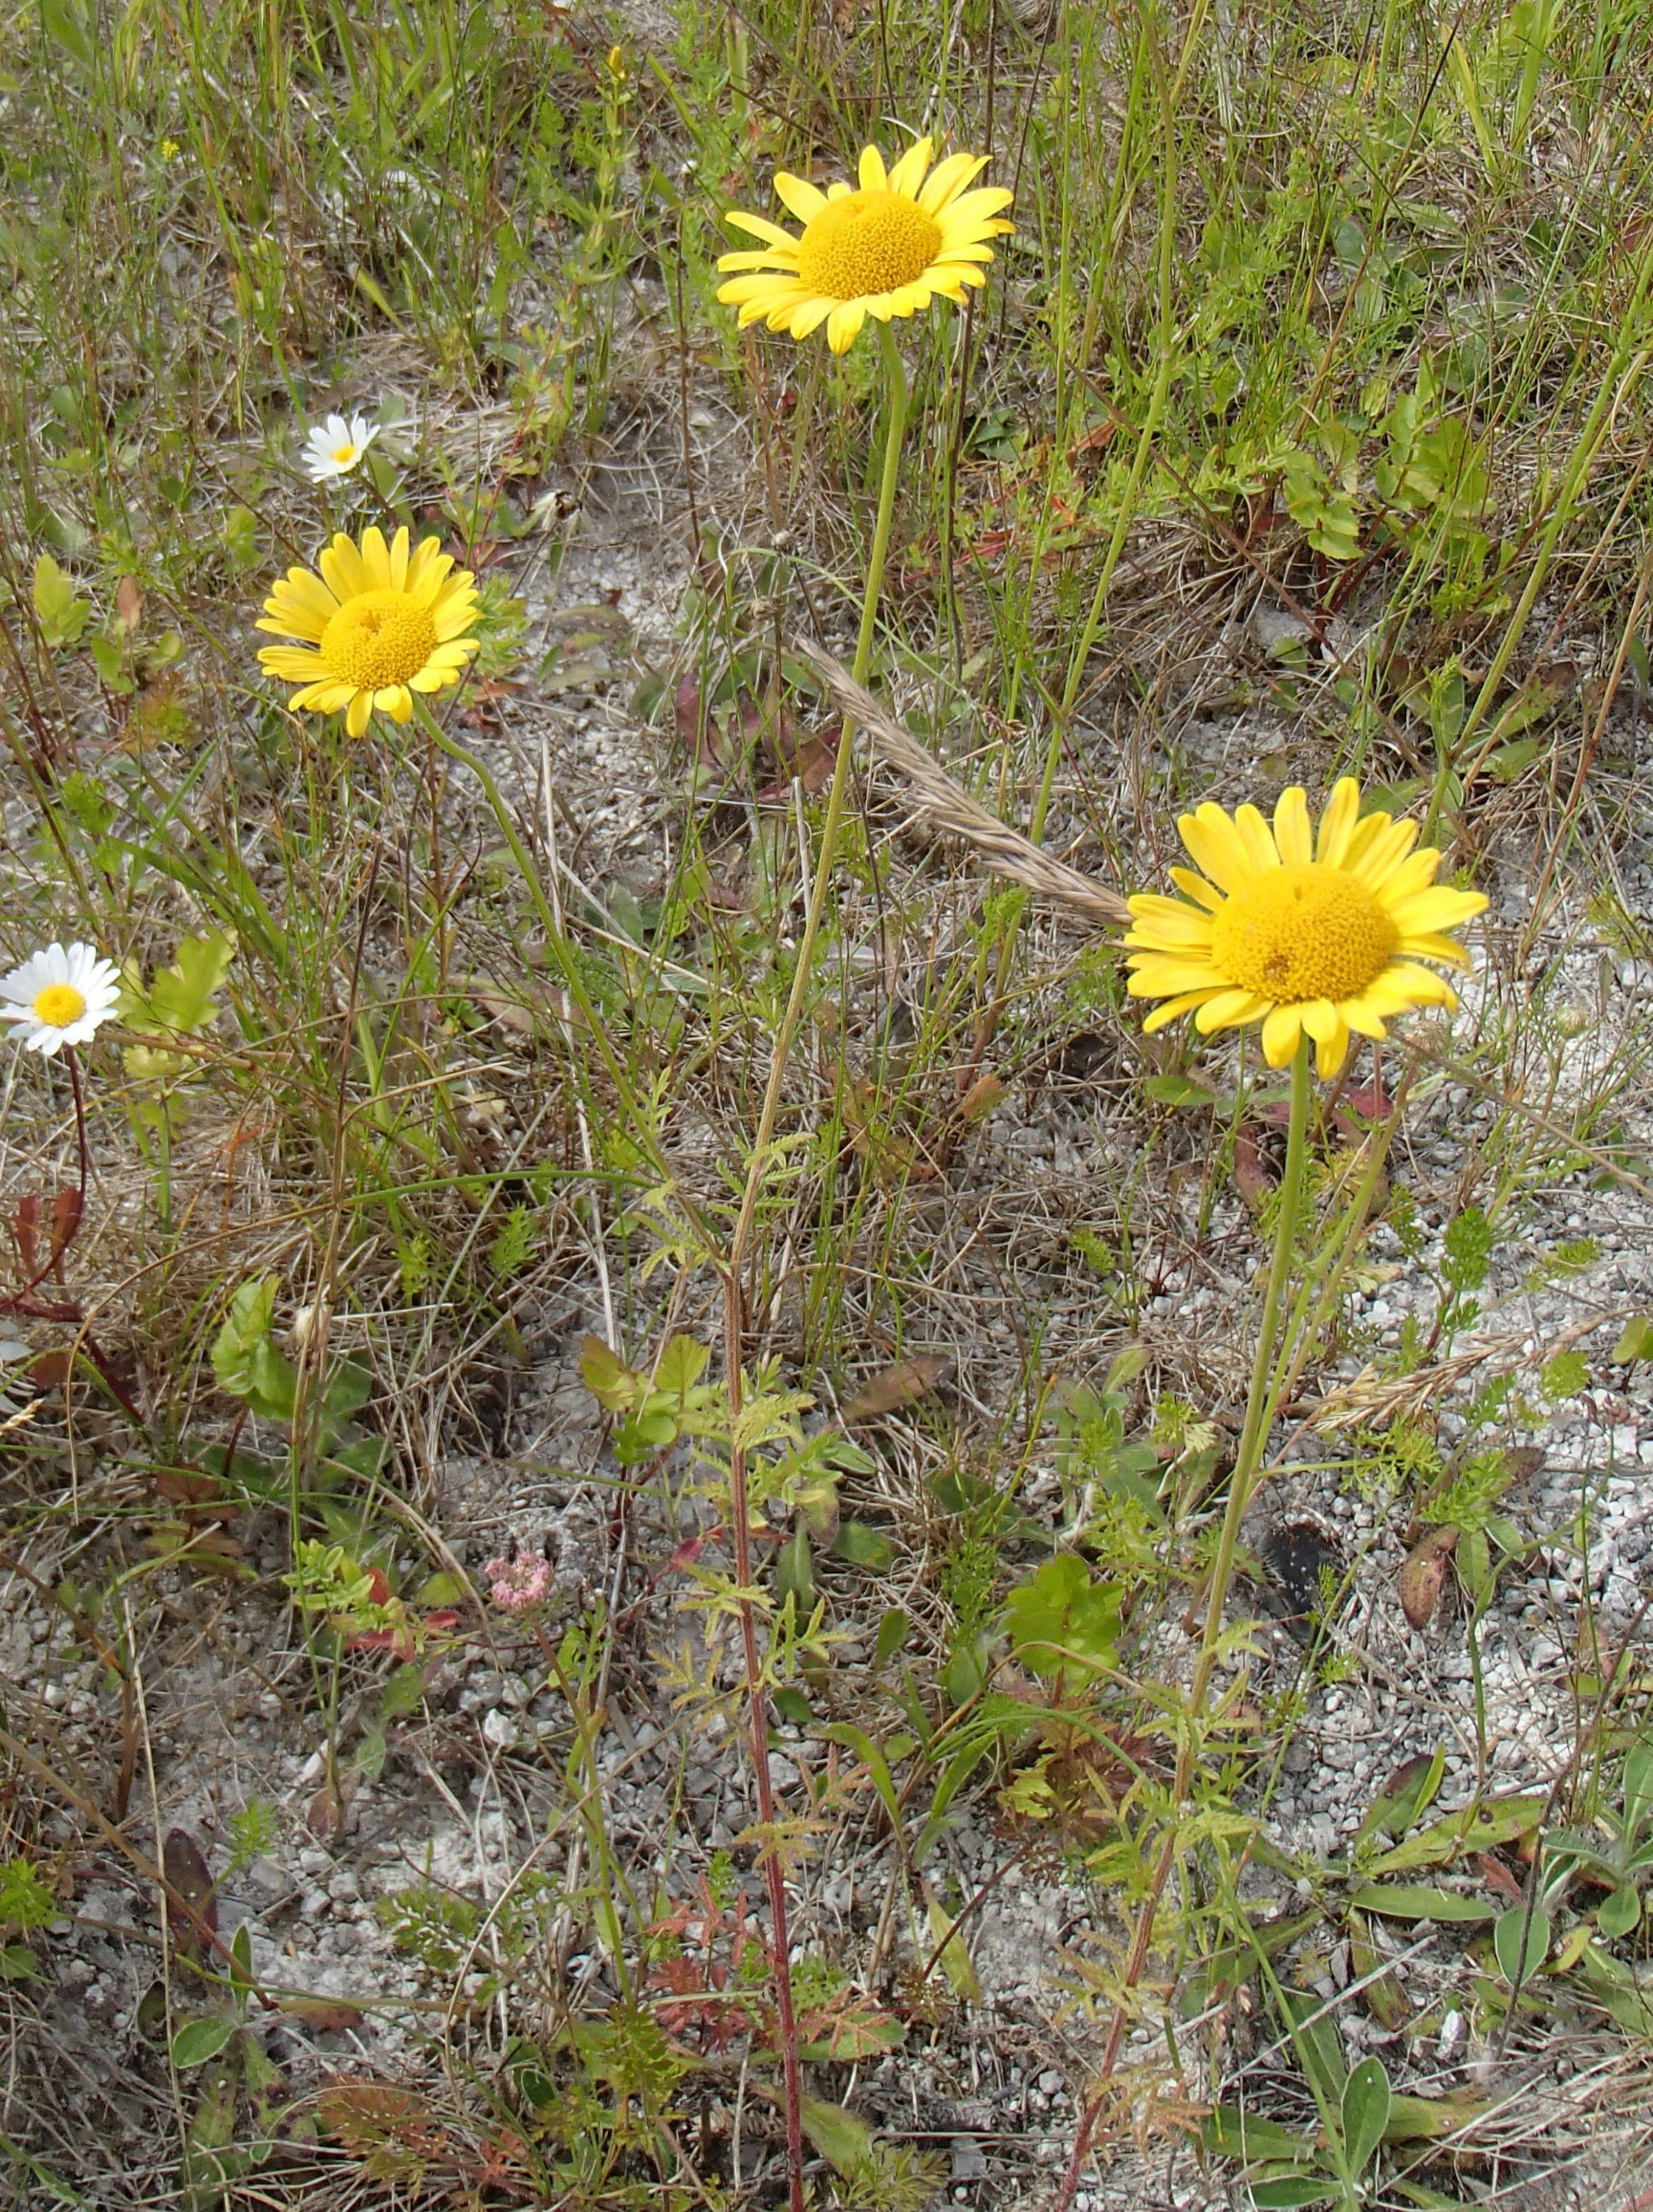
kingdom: Plantae
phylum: Tracheophyta
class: Magnoliopsida
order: Asterales
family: Asteraceae
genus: Cota
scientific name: Cota tinctoria
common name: Farve-gåseurt
